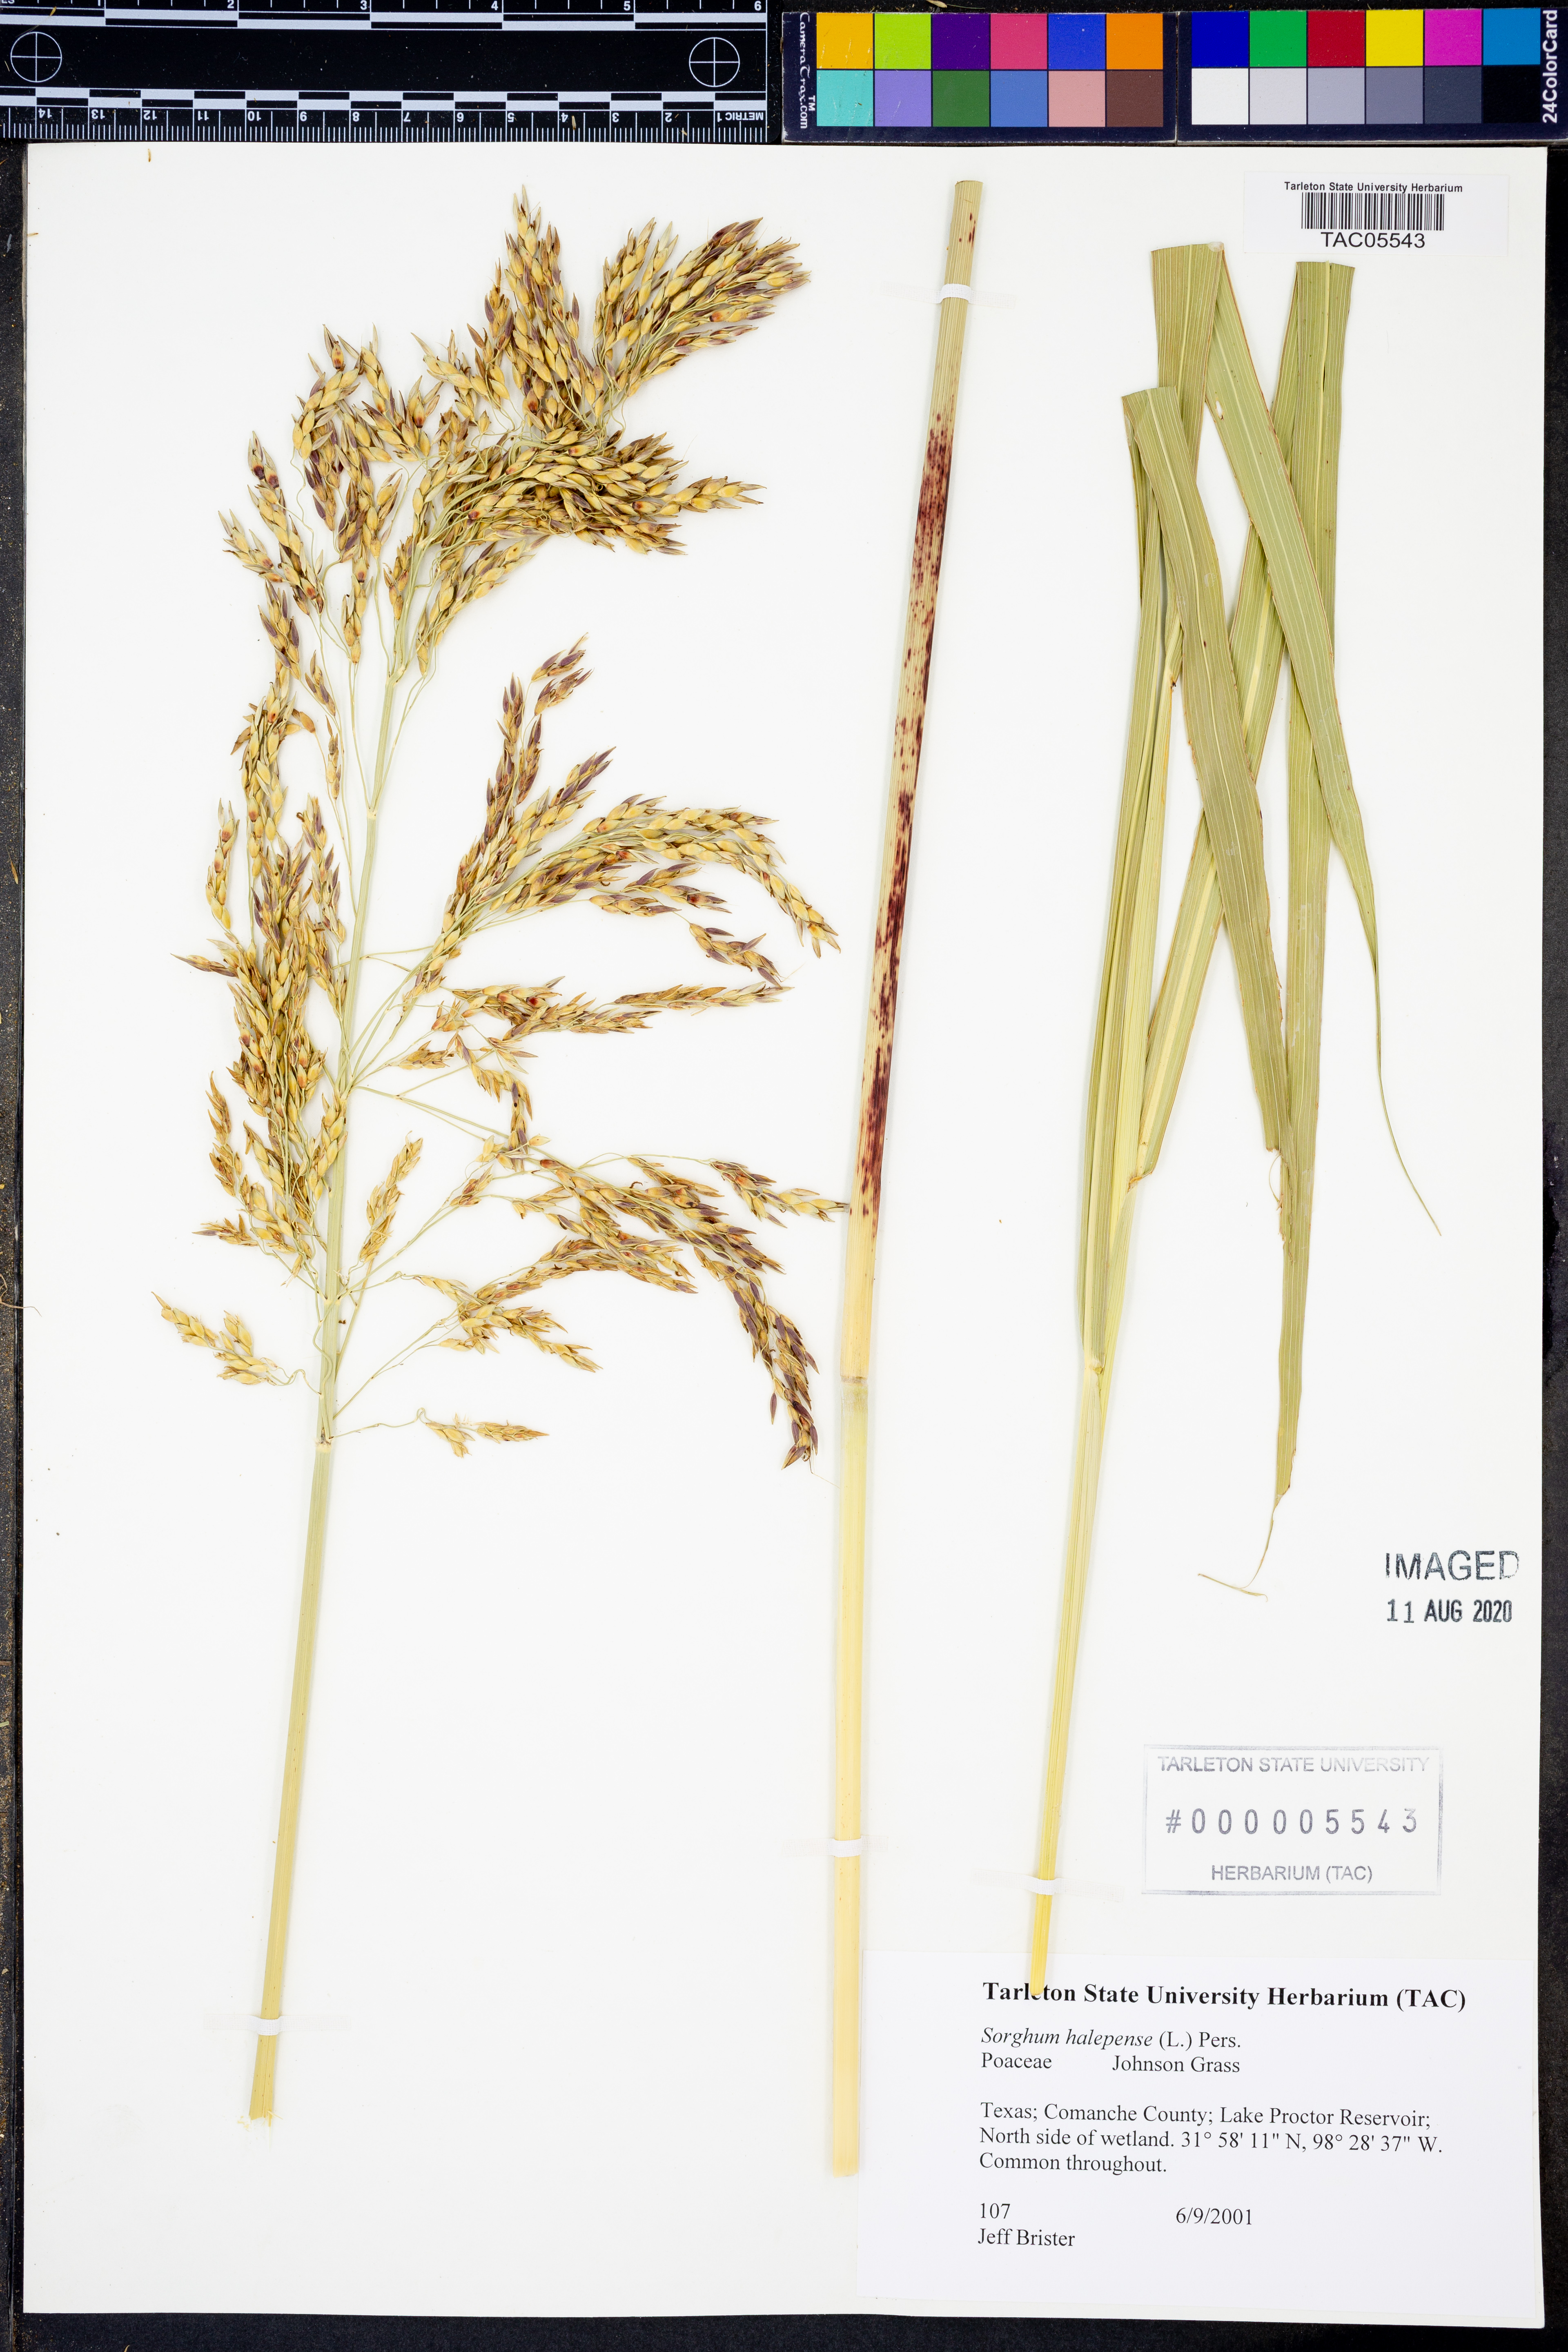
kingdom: Plantae
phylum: Tracheophyta
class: Liliopsida
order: Poales
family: Poaceae
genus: Sorghum
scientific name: Sorghum halepense
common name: Johnson-grass
